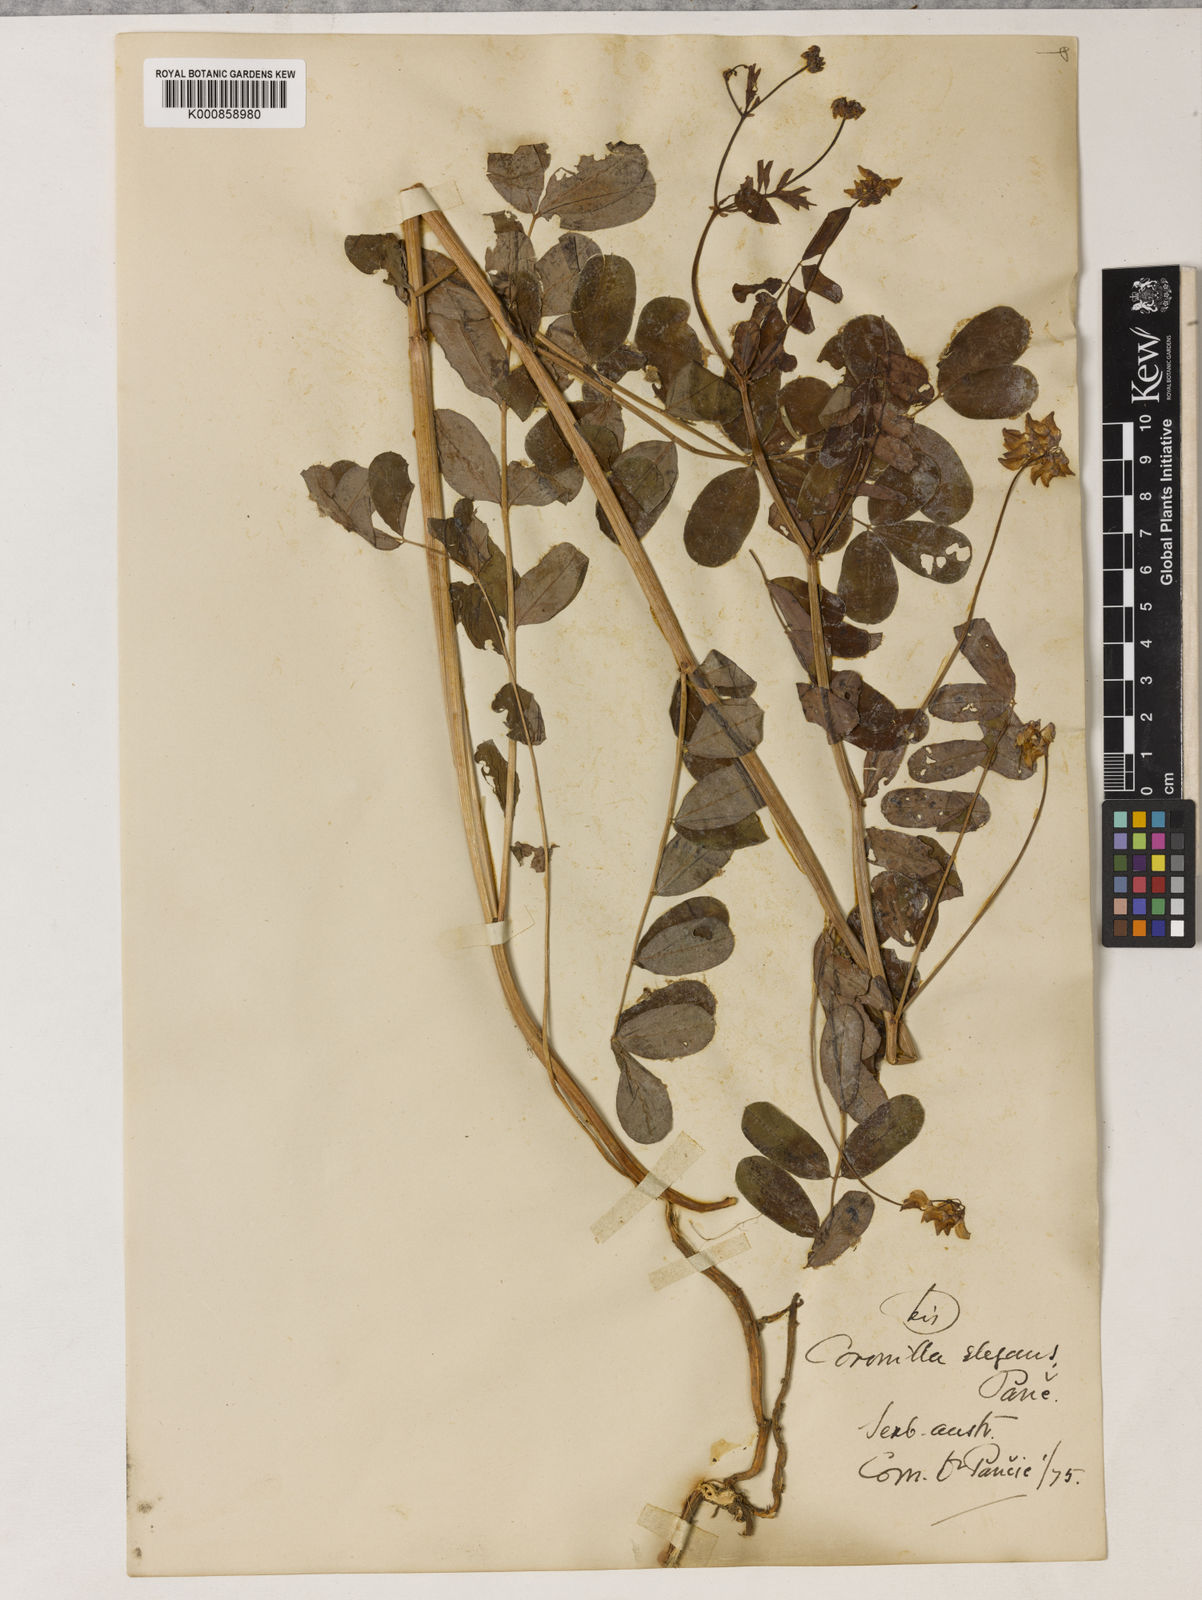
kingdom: Plantae
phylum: Tracheophyta
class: Magnoliopsida
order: Fabales
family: Fabaceae
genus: Coronilla
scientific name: Coronilla elegans
